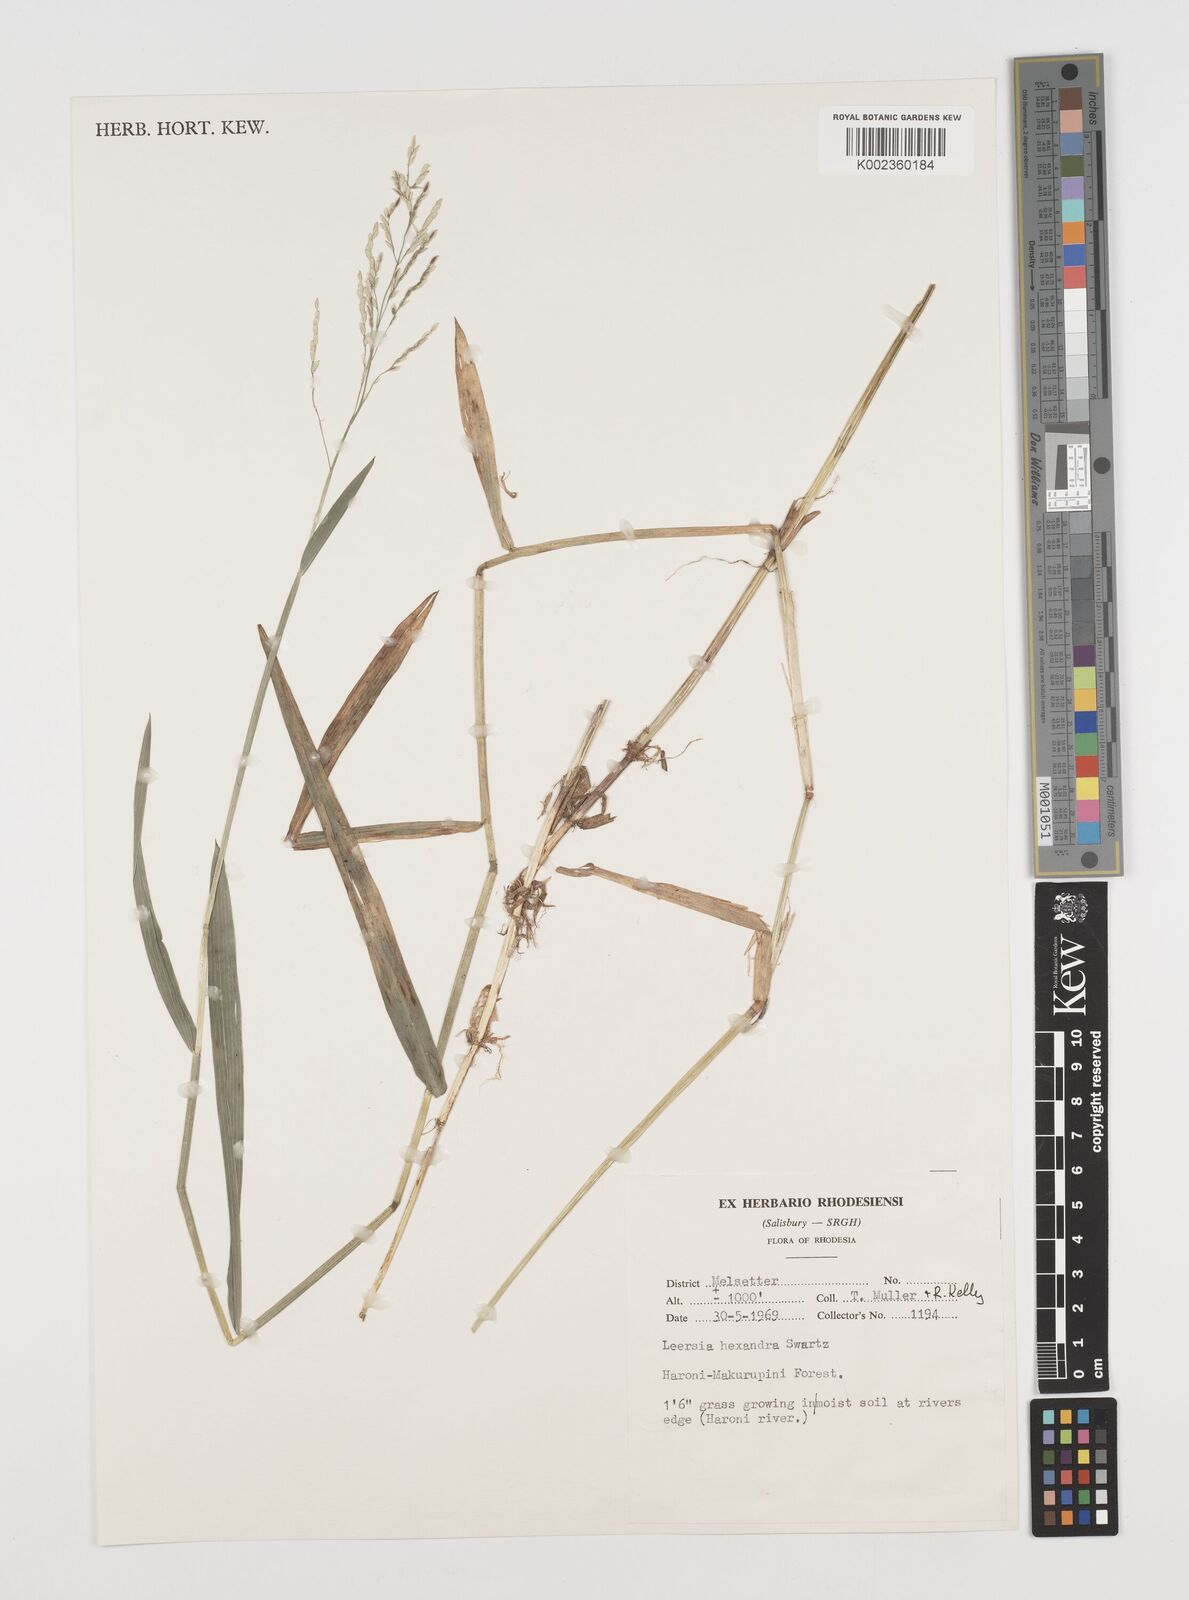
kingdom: Plantae
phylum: Tracheophyta
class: Liliopsida
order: Poales
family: Poaceae
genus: Leersia
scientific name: Leersia hexandra
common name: Southern cut grass
